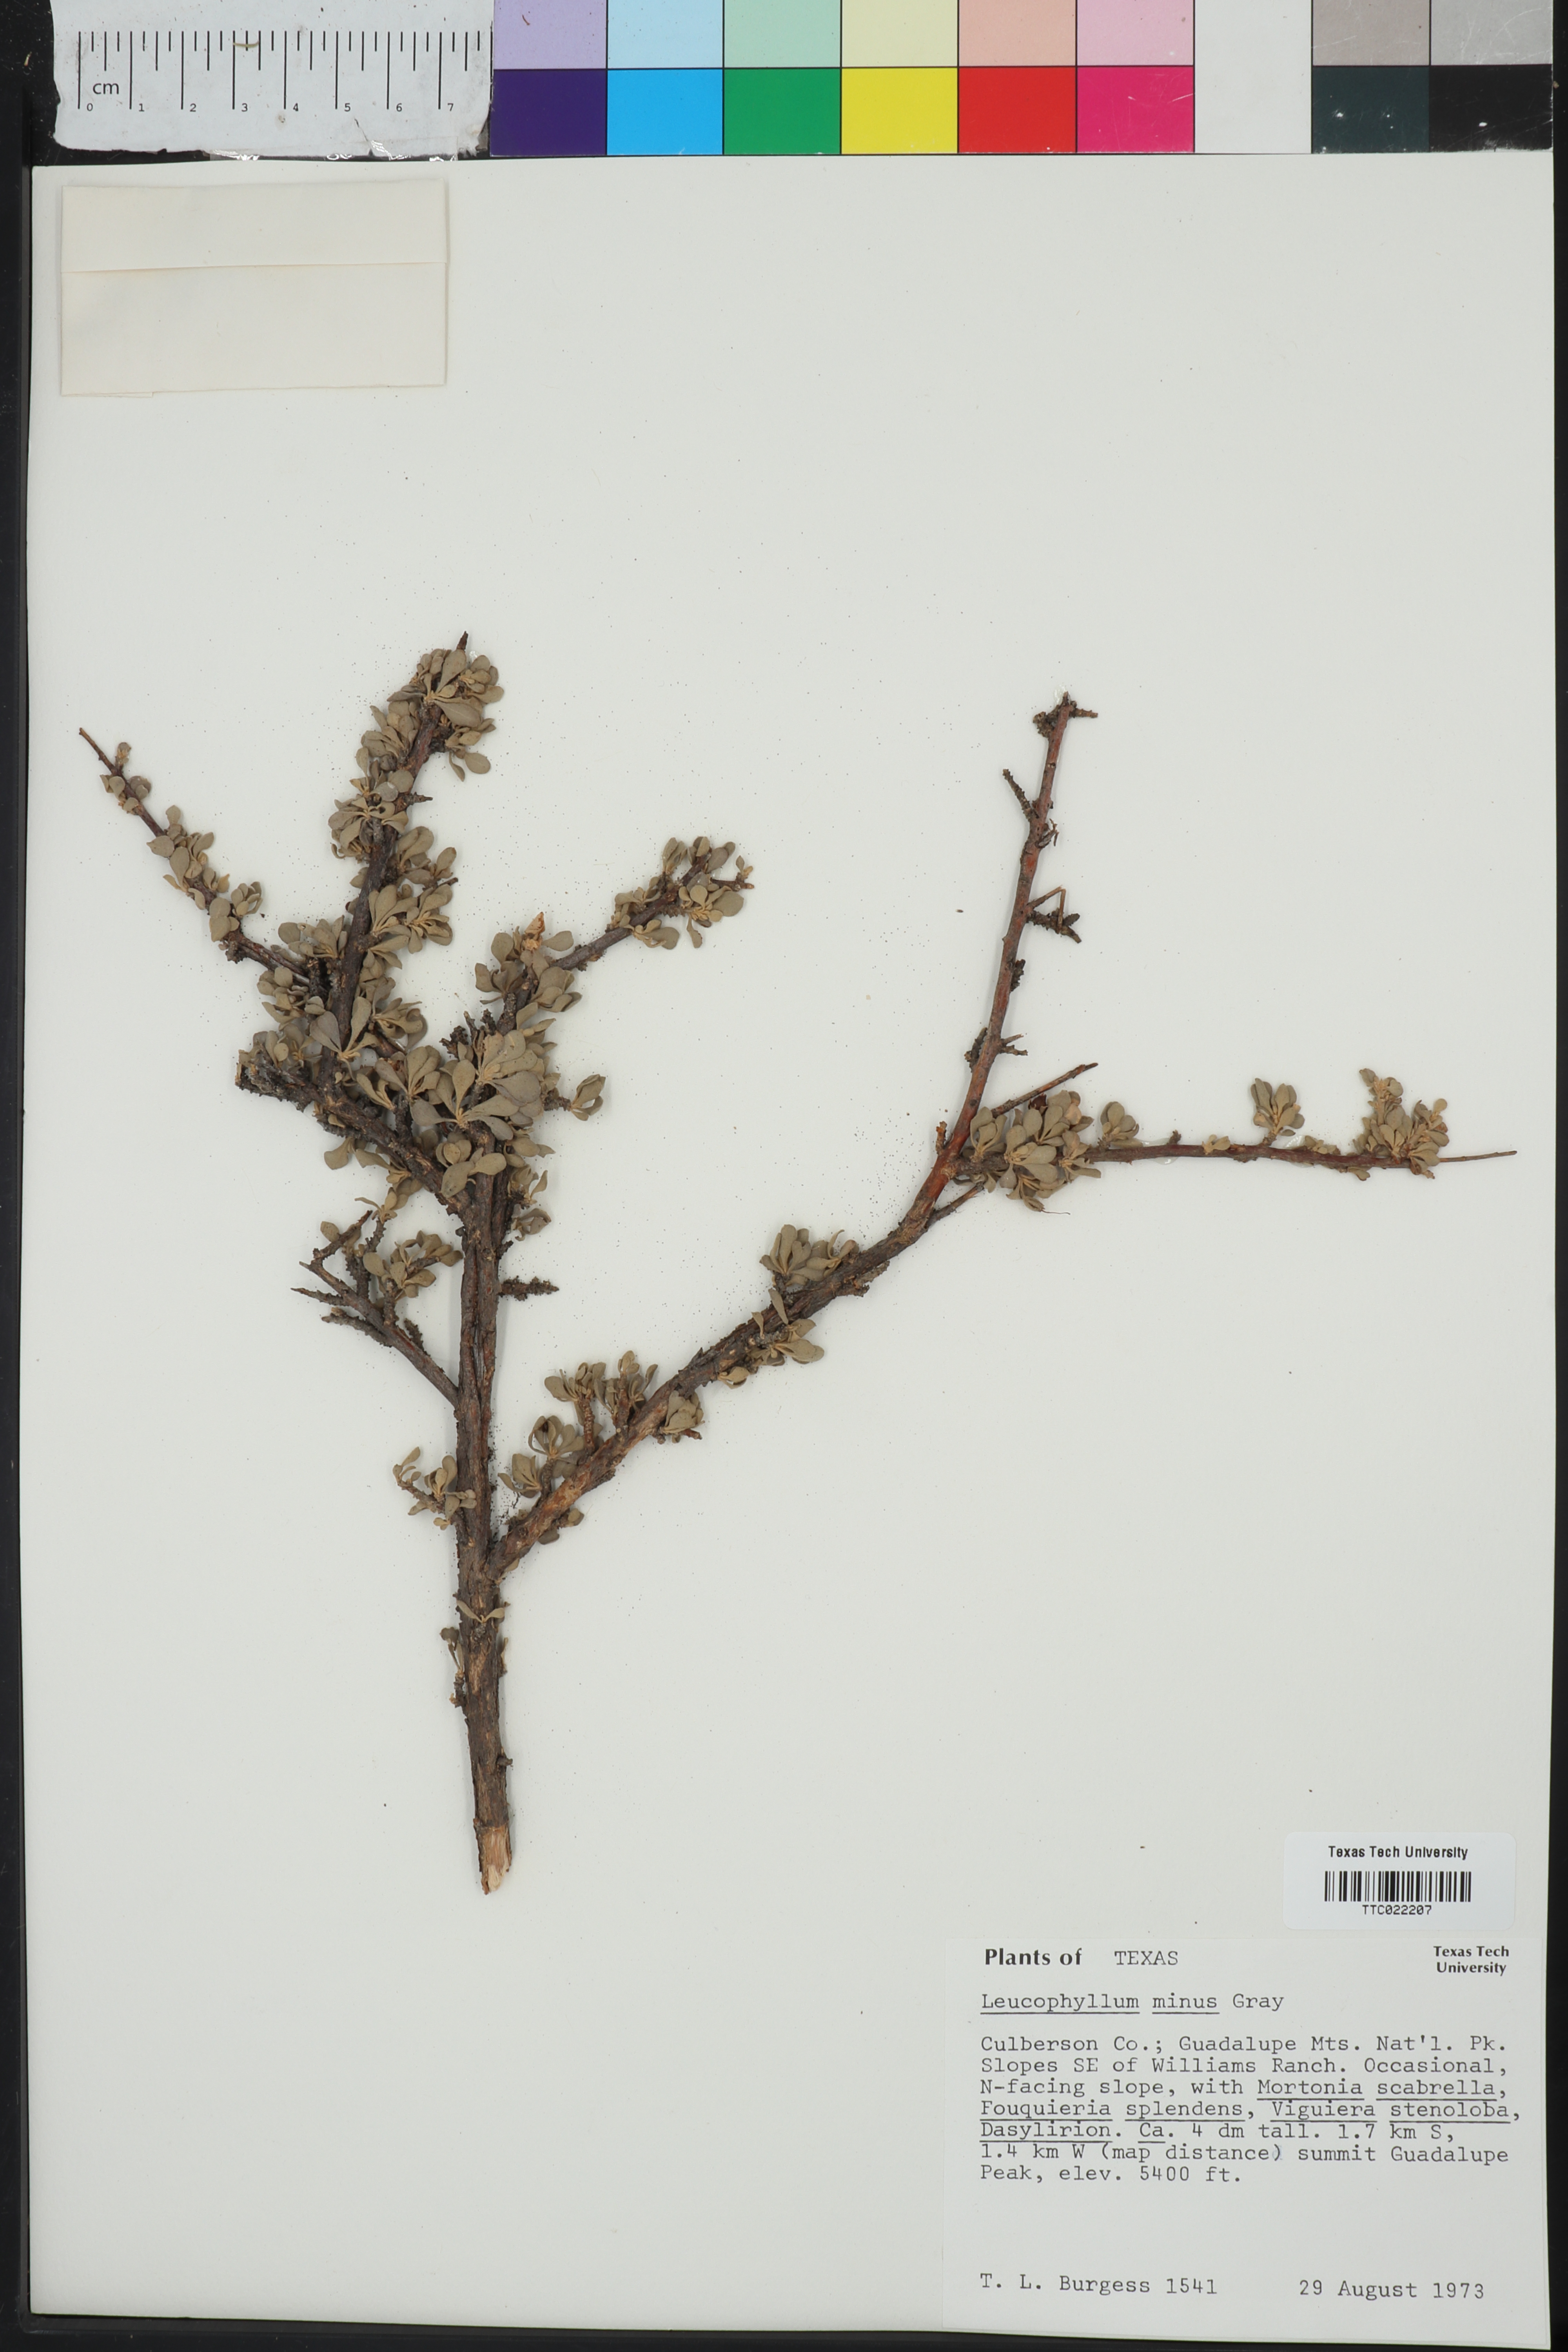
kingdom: Plantae
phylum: Tracheophyta
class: Magnoliopsida
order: Lamiales
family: Scrophulariaceae
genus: Leucophyllum
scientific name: Leucophyllum minus
